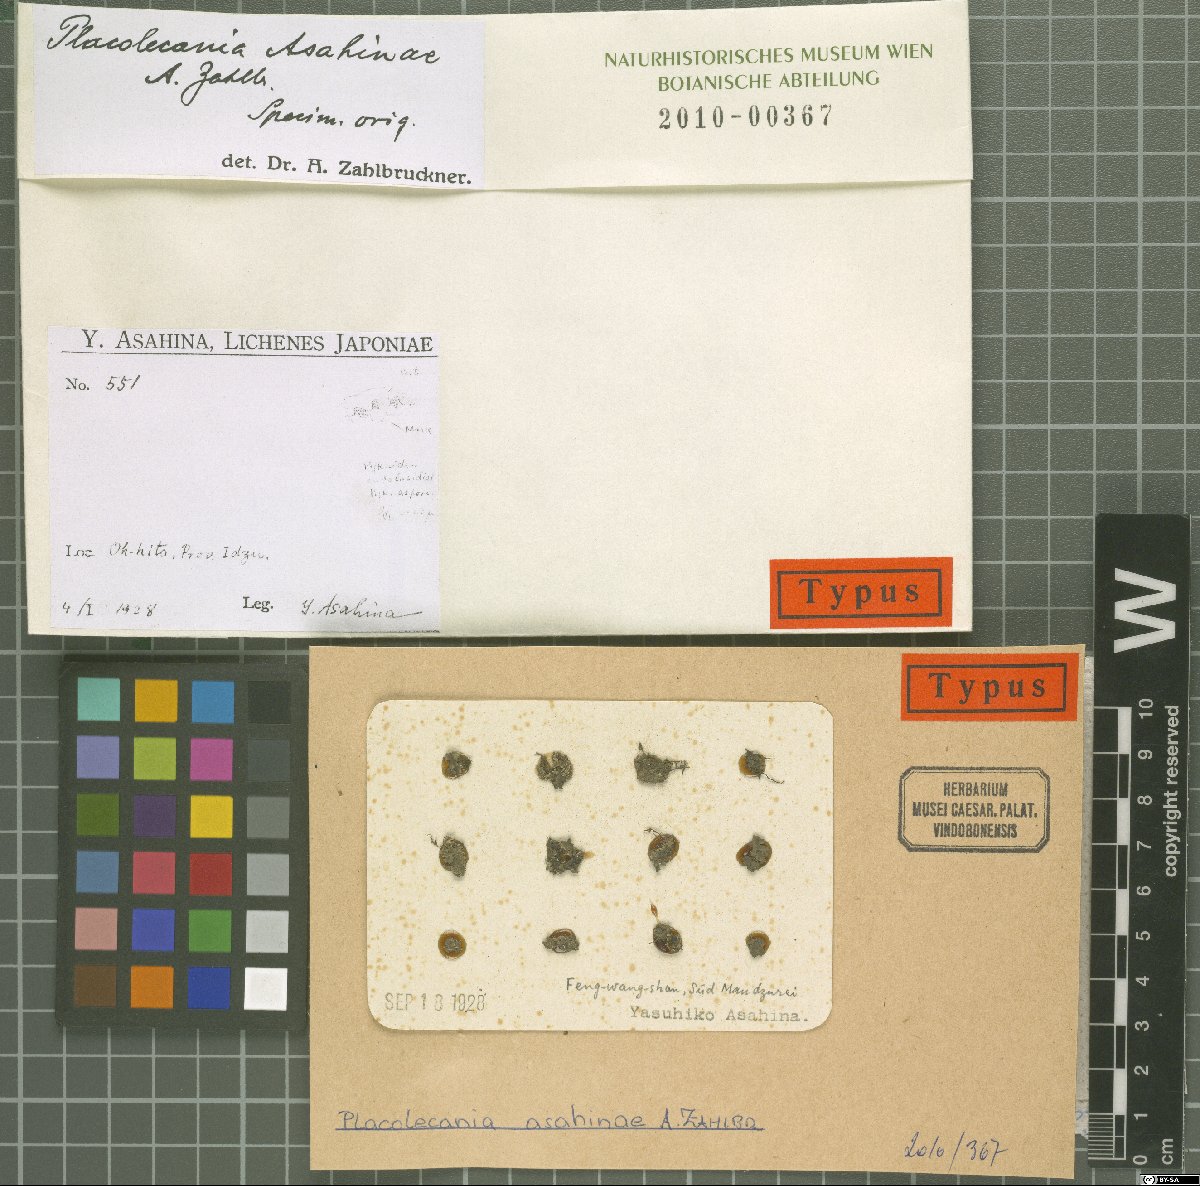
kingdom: Fungi
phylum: Ascomycota
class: Lecanoromycetes
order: Lecanorales
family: Lecanoraceae
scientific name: Lecanoraceae
